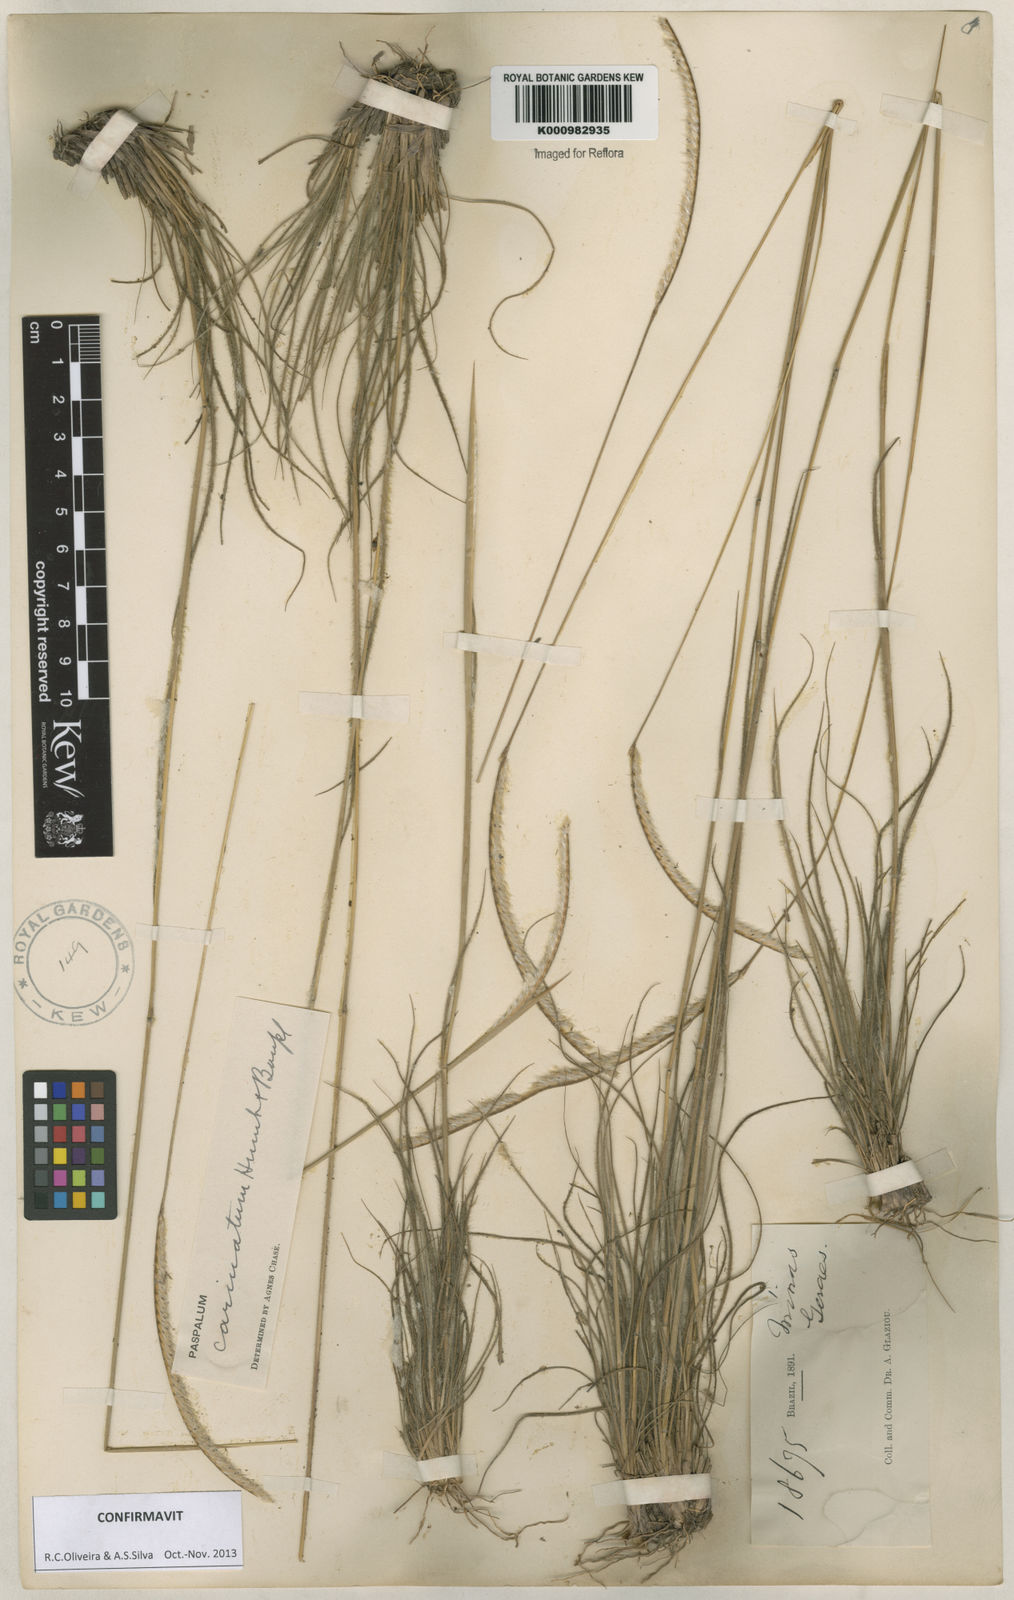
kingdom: Plantae
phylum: Tracheophyta
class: Liliopsida
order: Poales
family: Poaceae
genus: Paspalum
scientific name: Paspalum
